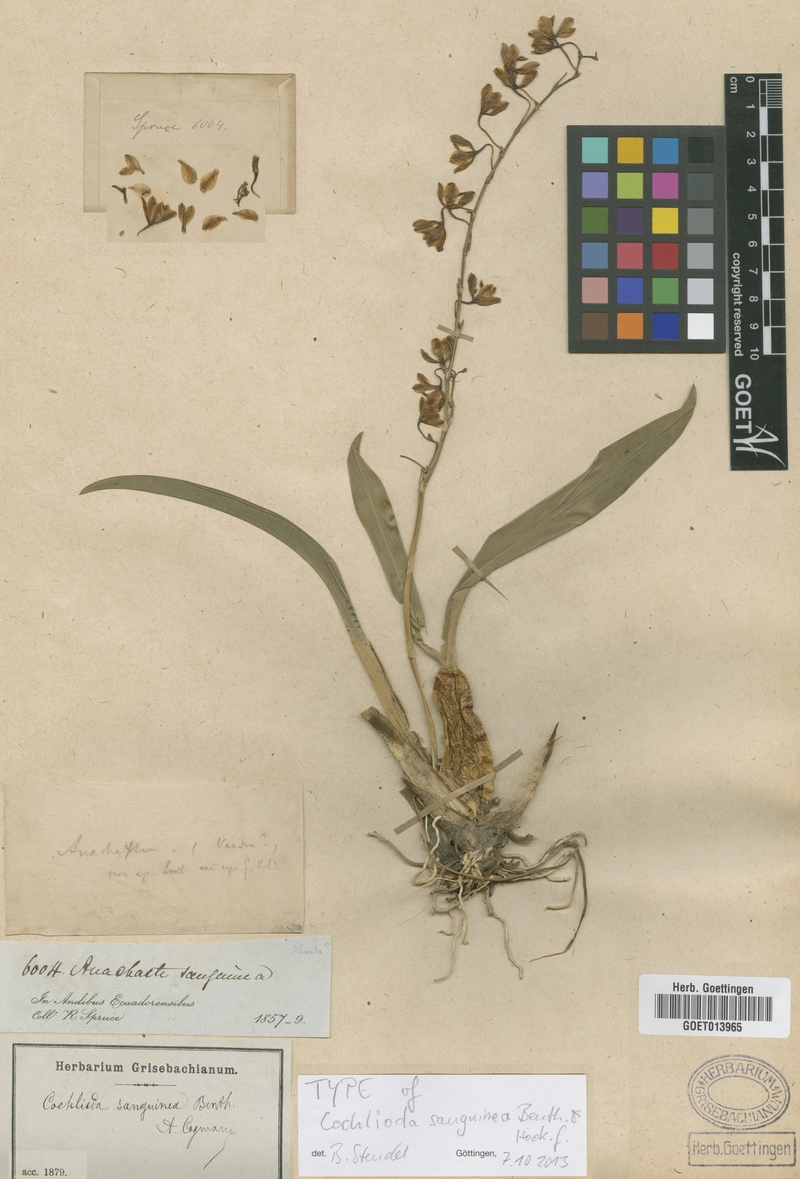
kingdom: Plantae
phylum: Tracheophyta
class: Liliopsida
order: Asparagales
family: Orchidaceae
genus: Oncidium
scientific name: Oncidium strictum
